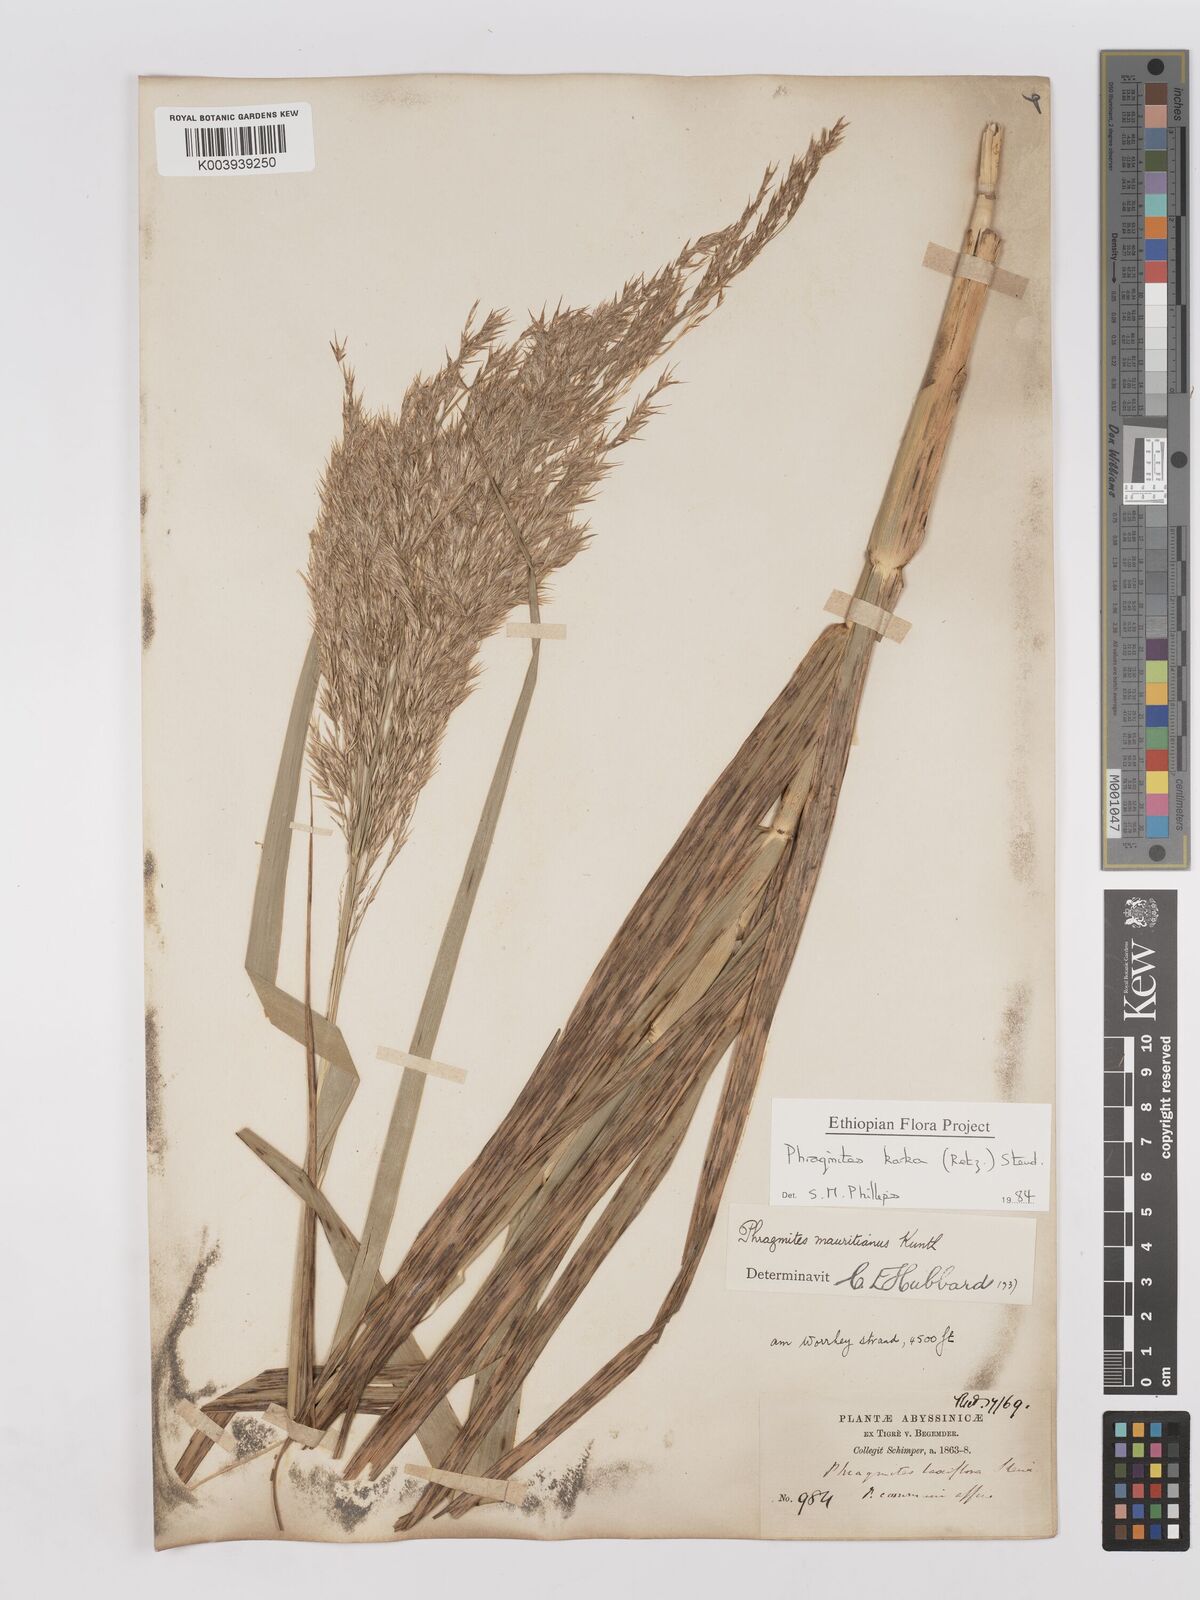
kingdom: Plantae
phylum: Tracheophyta
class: Liliopsida
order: Poales
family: Poaceae
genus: Phragmites
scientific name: Phragmites karka
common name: Tropical reed
